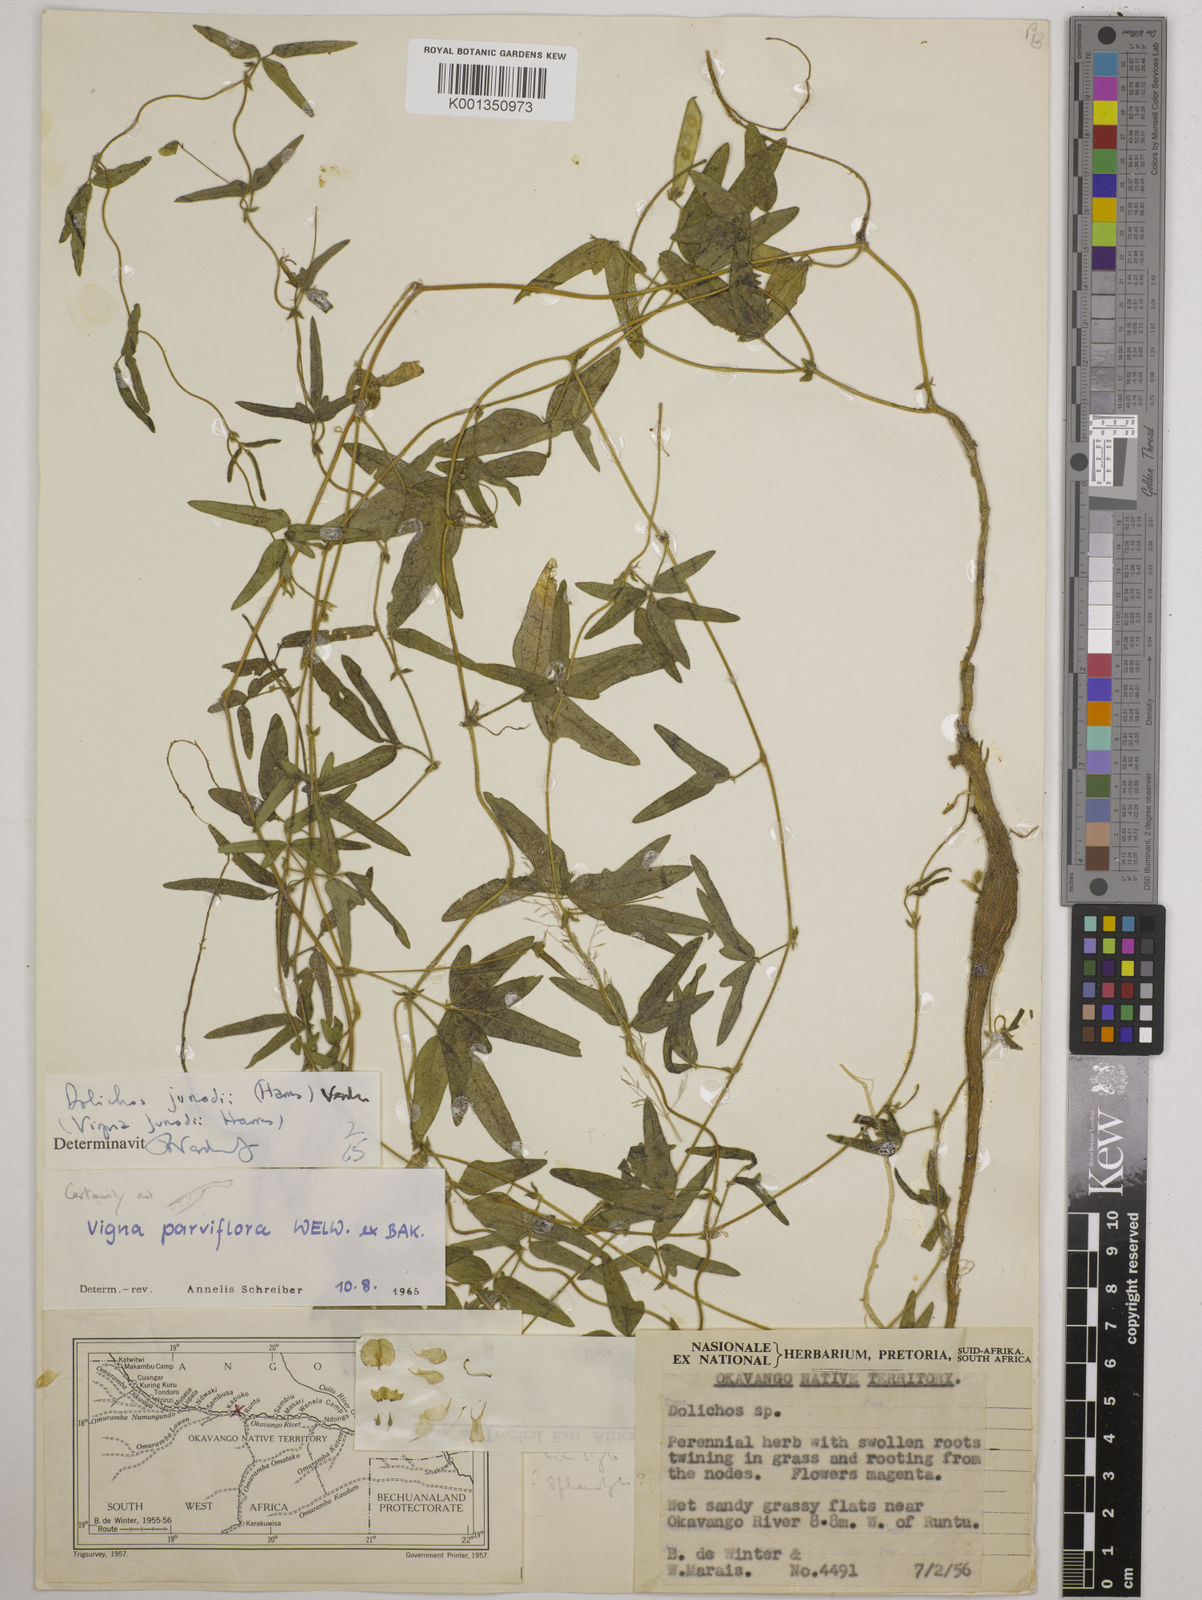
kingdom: Plantae
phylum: Tracheophyta
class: Magnoliopsida
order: Fabales
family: Fabaceae
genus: Dolichos
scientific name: Dolichos
